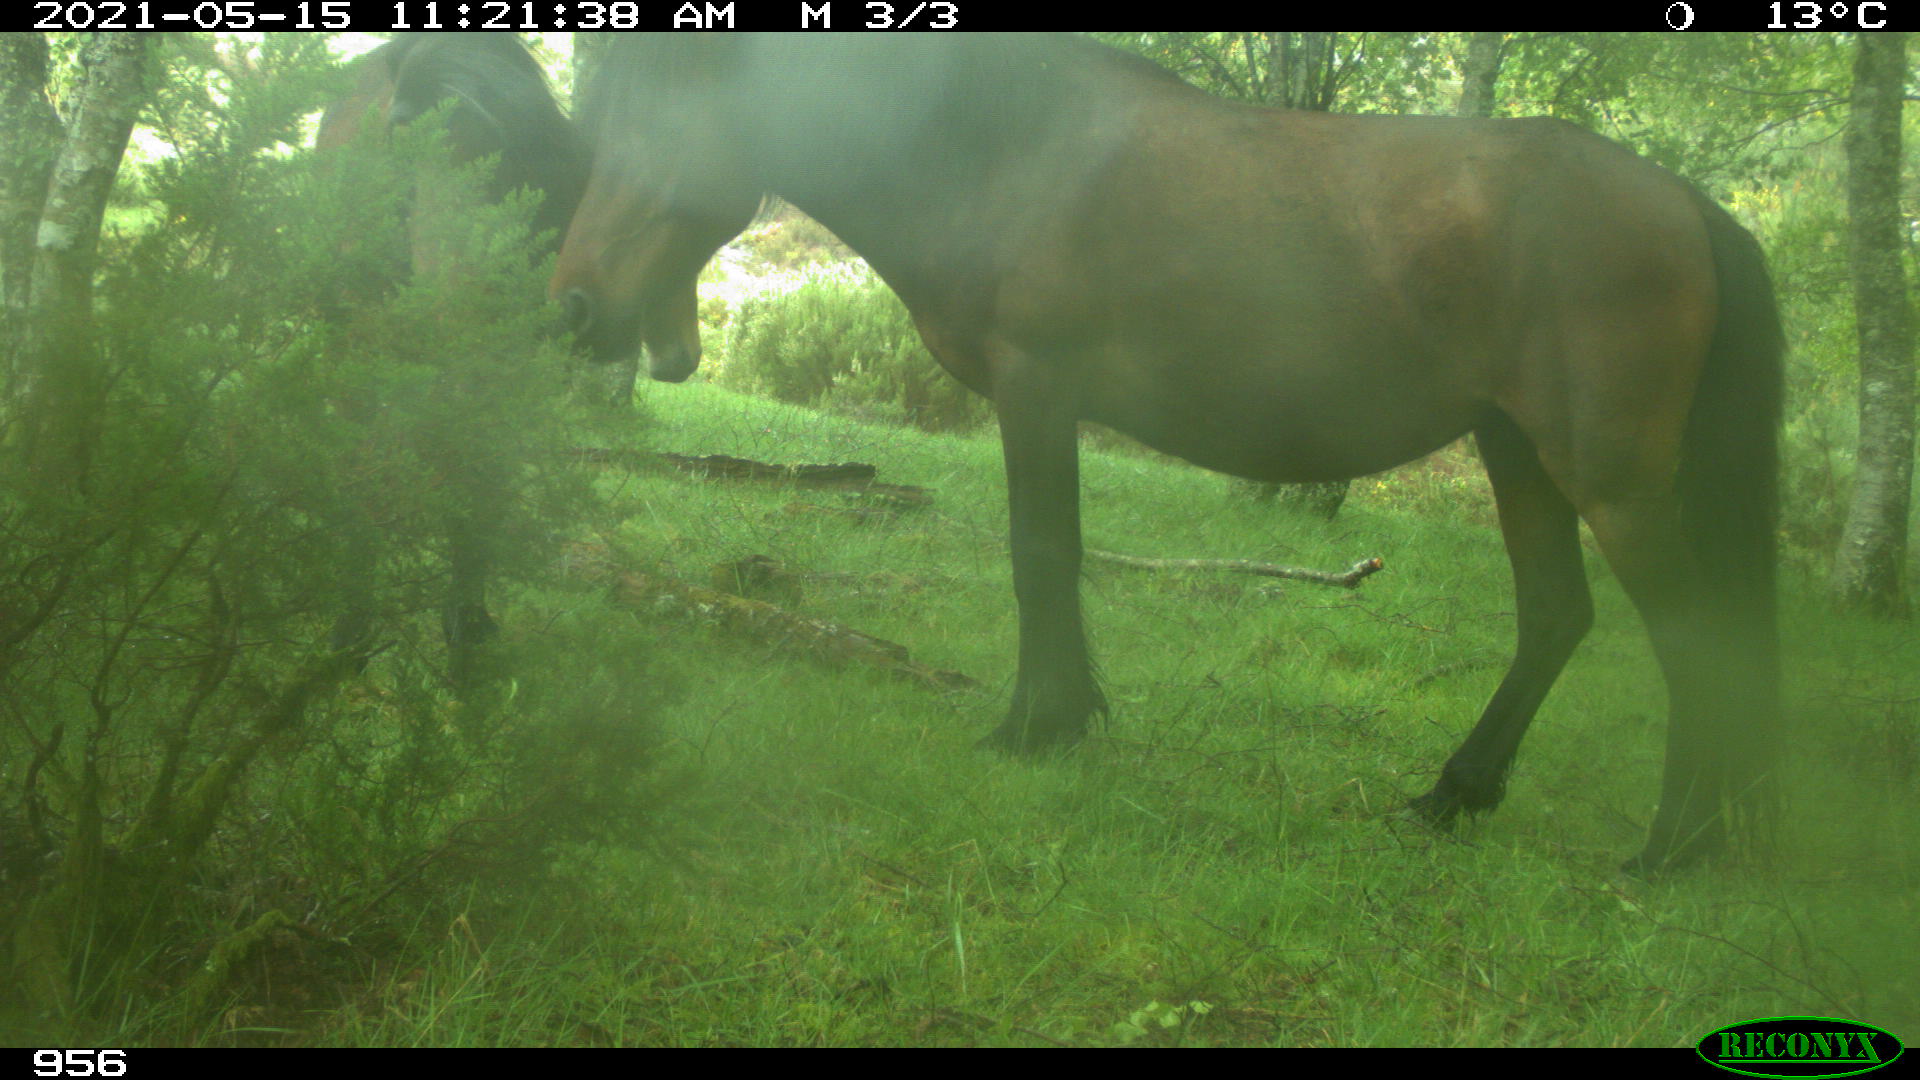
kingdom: Animalia
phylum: Chordata
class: Mammalia
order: Perissodactyla
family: Equidae
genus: Equus
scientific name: Equus caballus
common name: Horse
